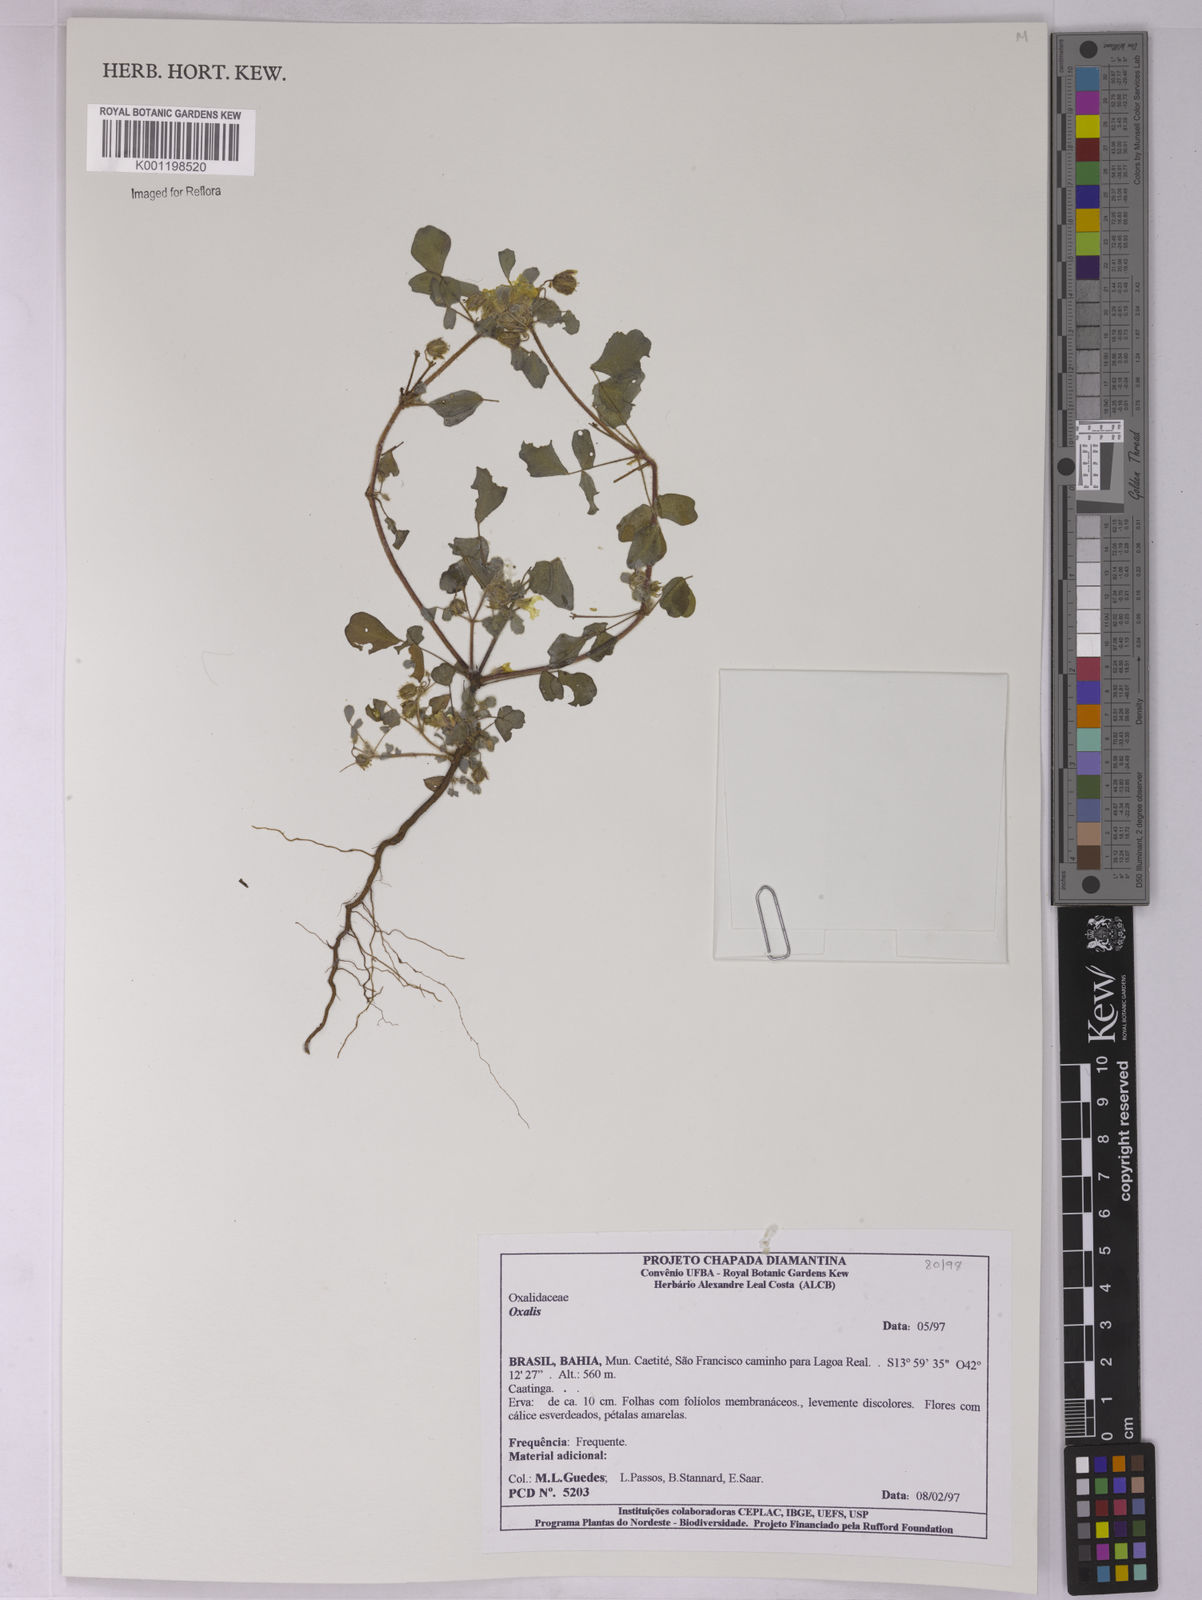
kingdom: Plantae
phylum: Tracheophyta
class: Magnoliopsida
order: Oxalidales
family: Oxalidaceae
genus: Oxalis
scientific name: Oxalis
